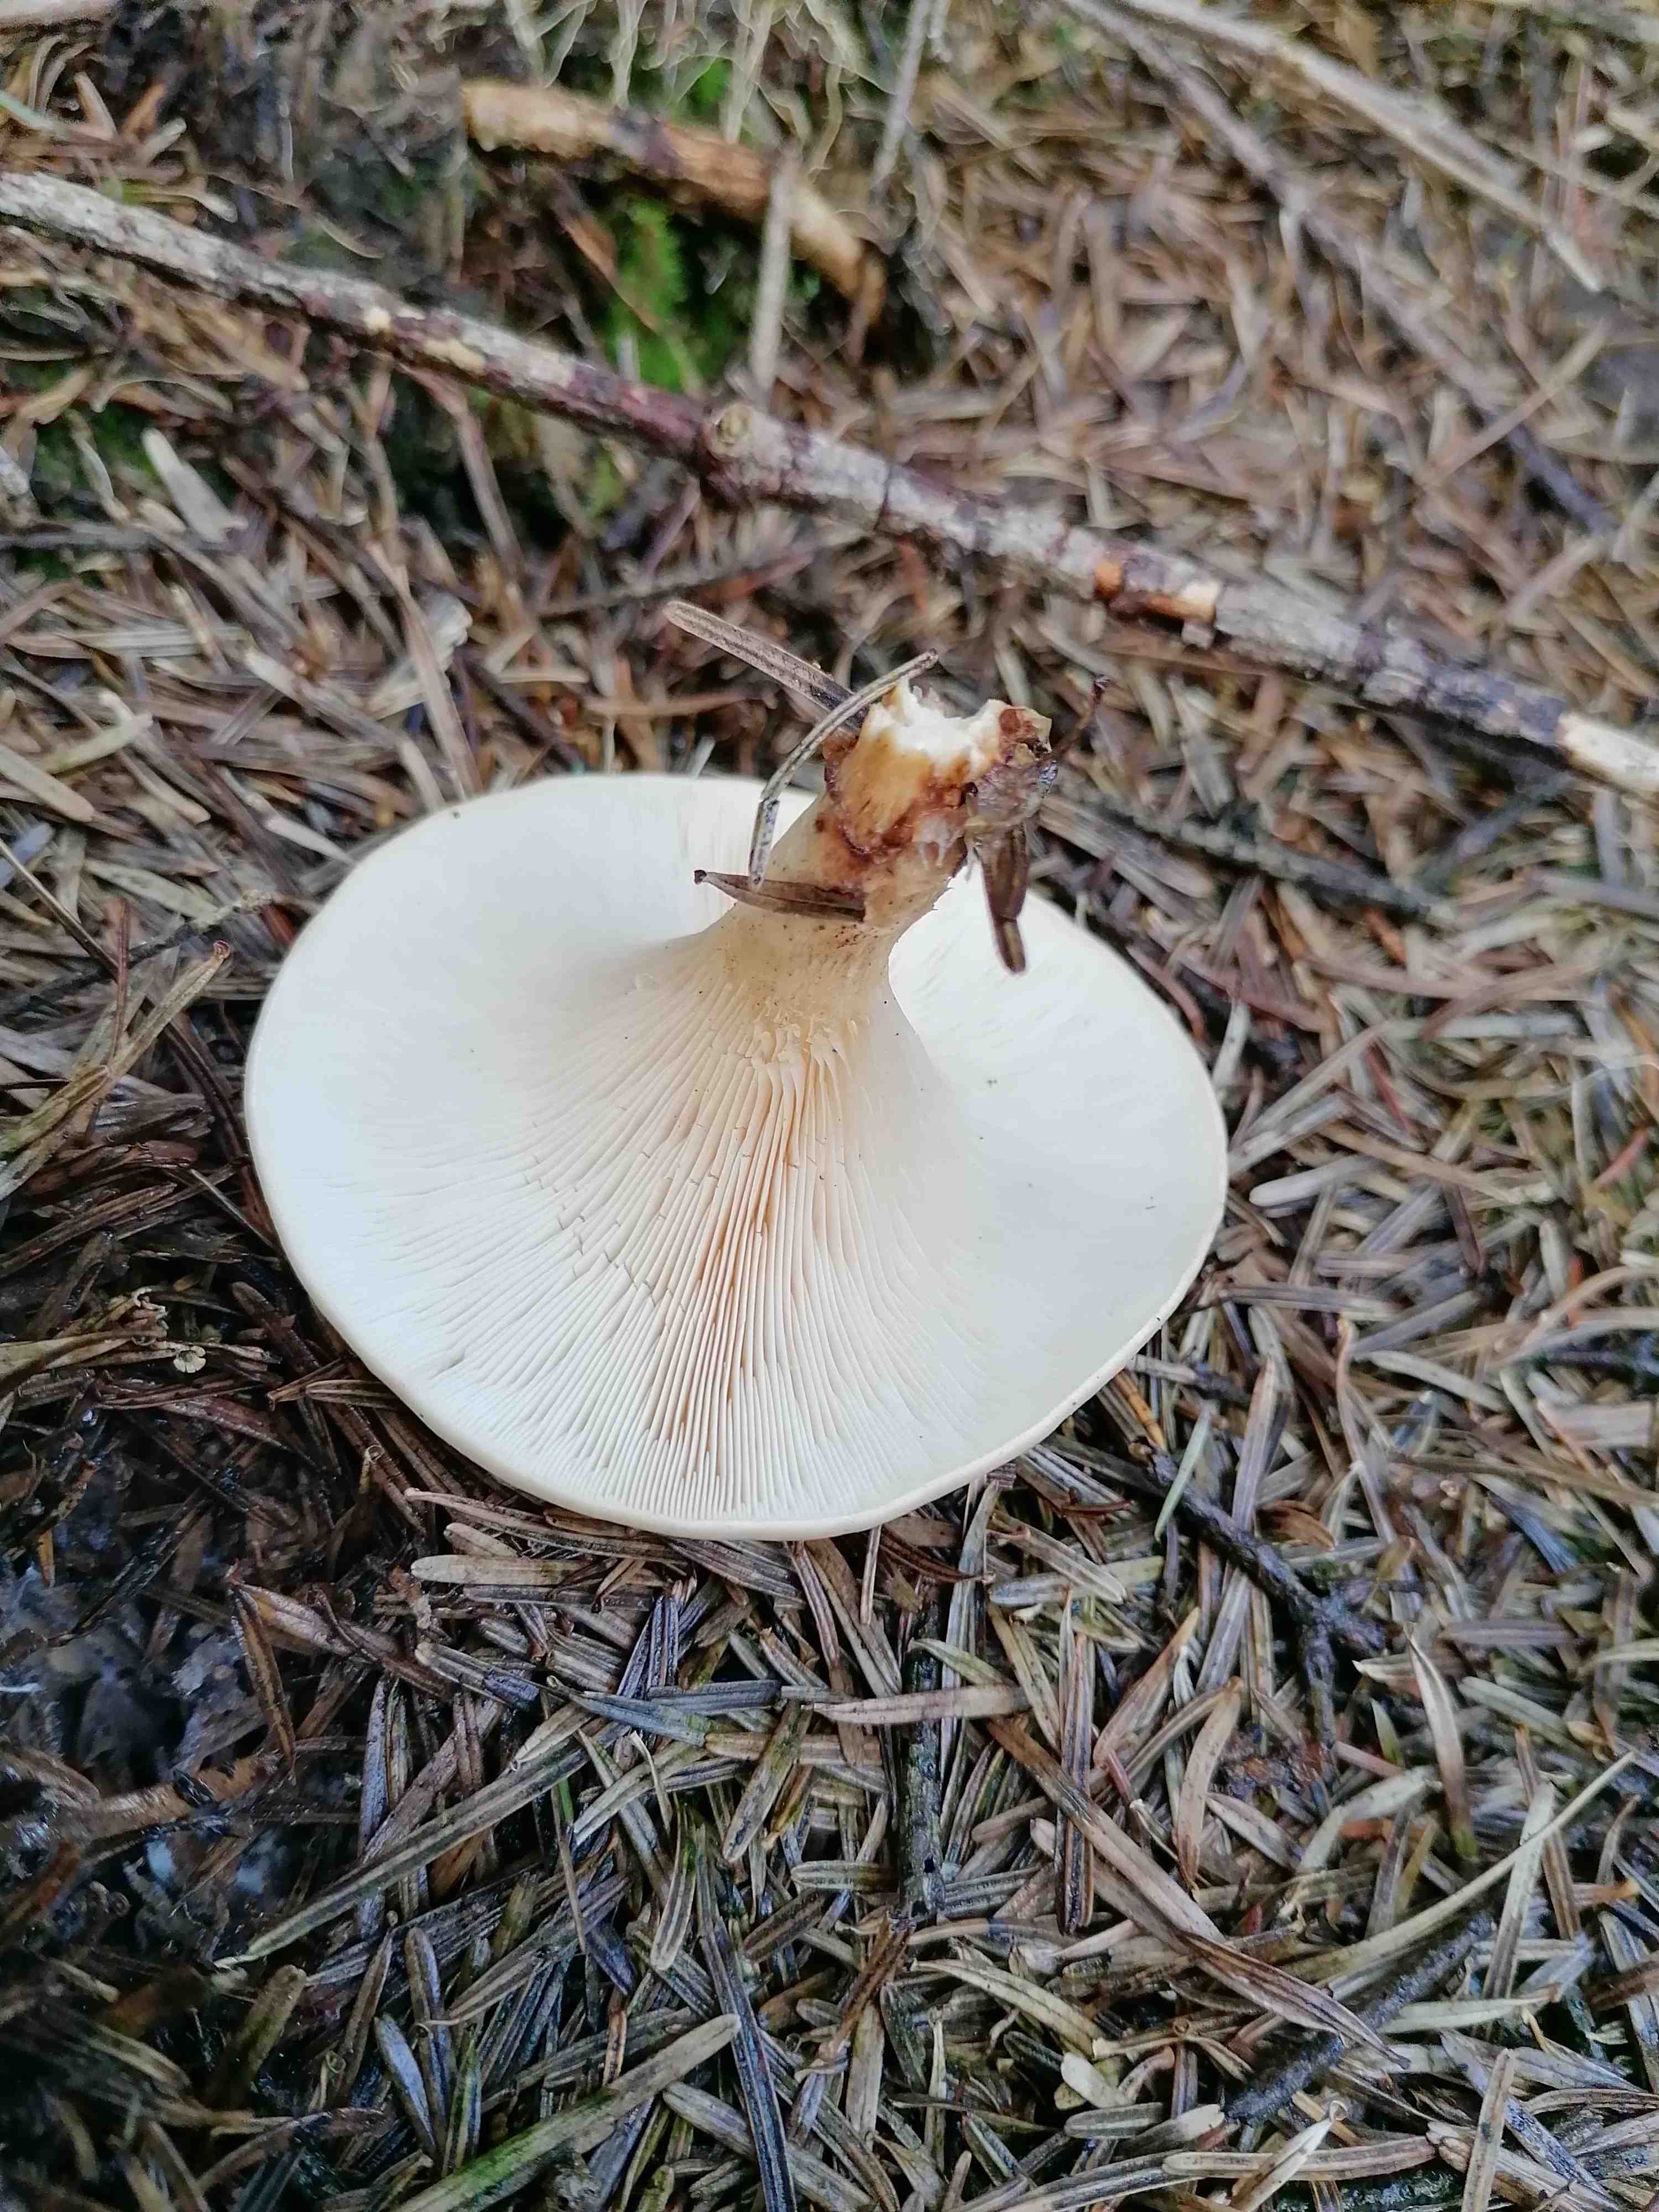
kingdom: Fungi
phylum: Basidiomycota
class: Agaricomycetes
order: Agaricales
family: Tricholomataceae
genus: Paralepista
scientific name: Paralepista flaccida
